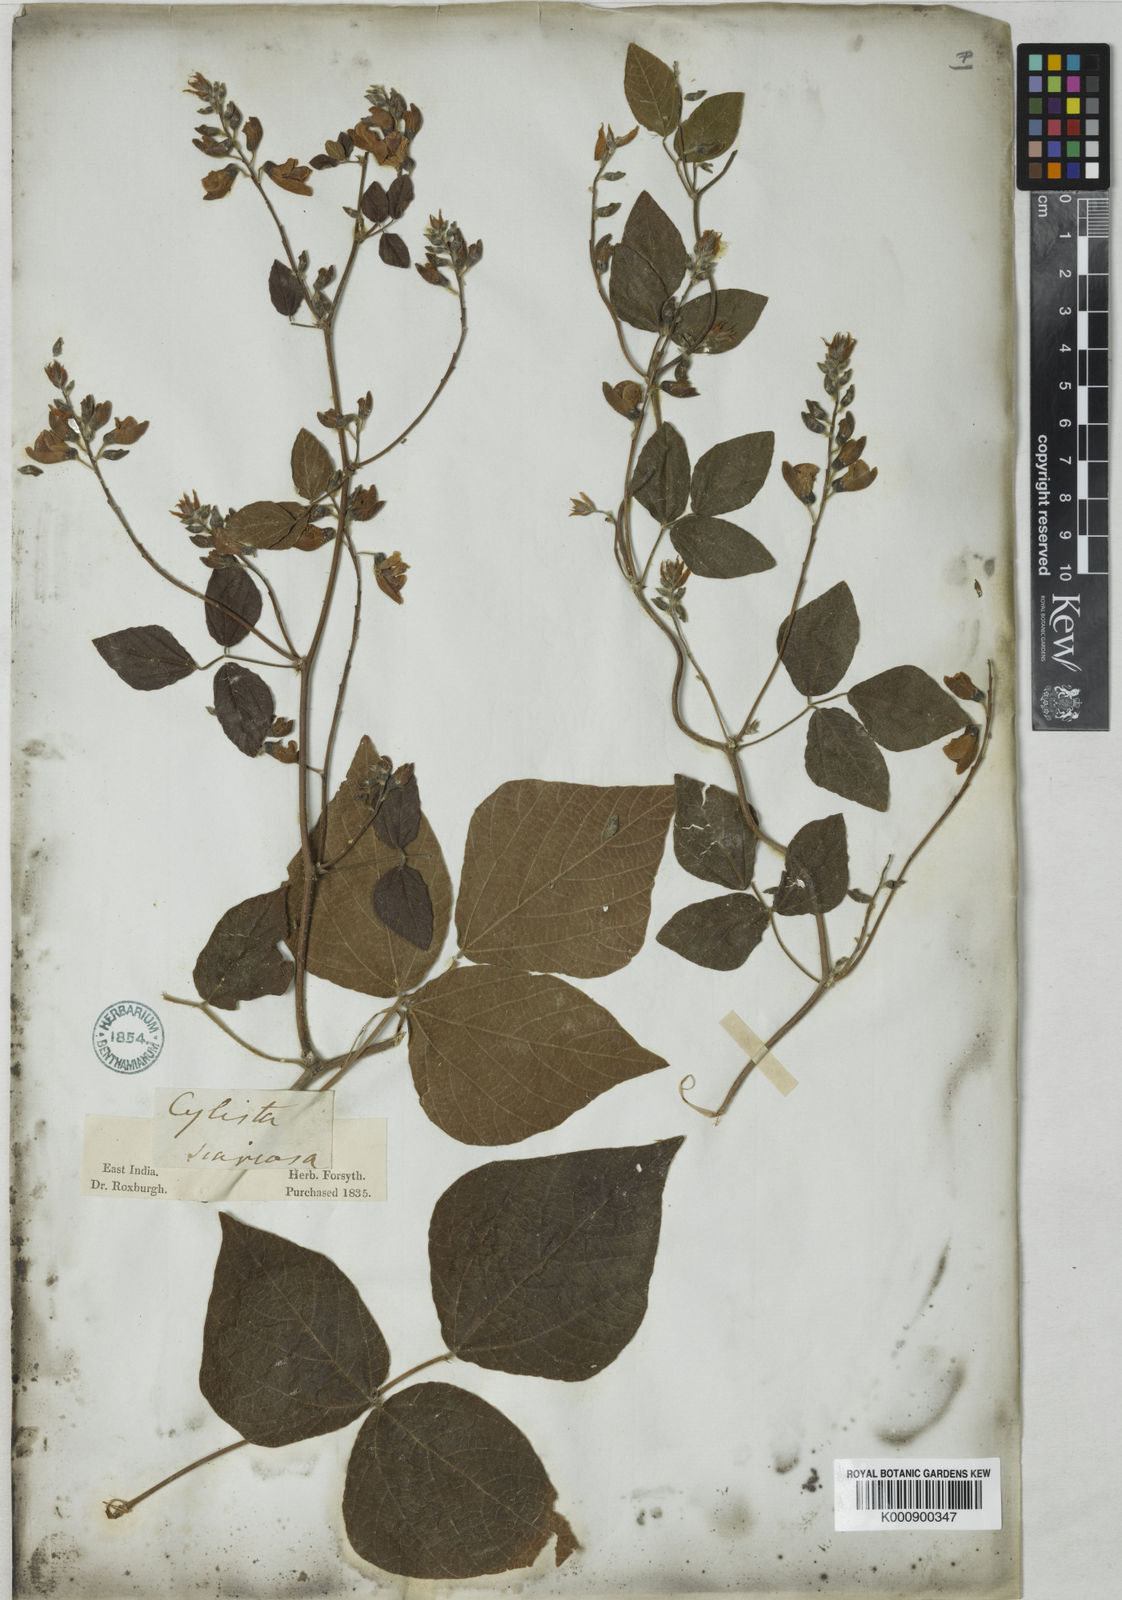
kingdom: Plantae
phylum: Tracheophyta
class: Magnoliopsida
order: Fabales
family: Fabaceae
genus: Paracalyx
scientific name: Paracalyx scariosus
